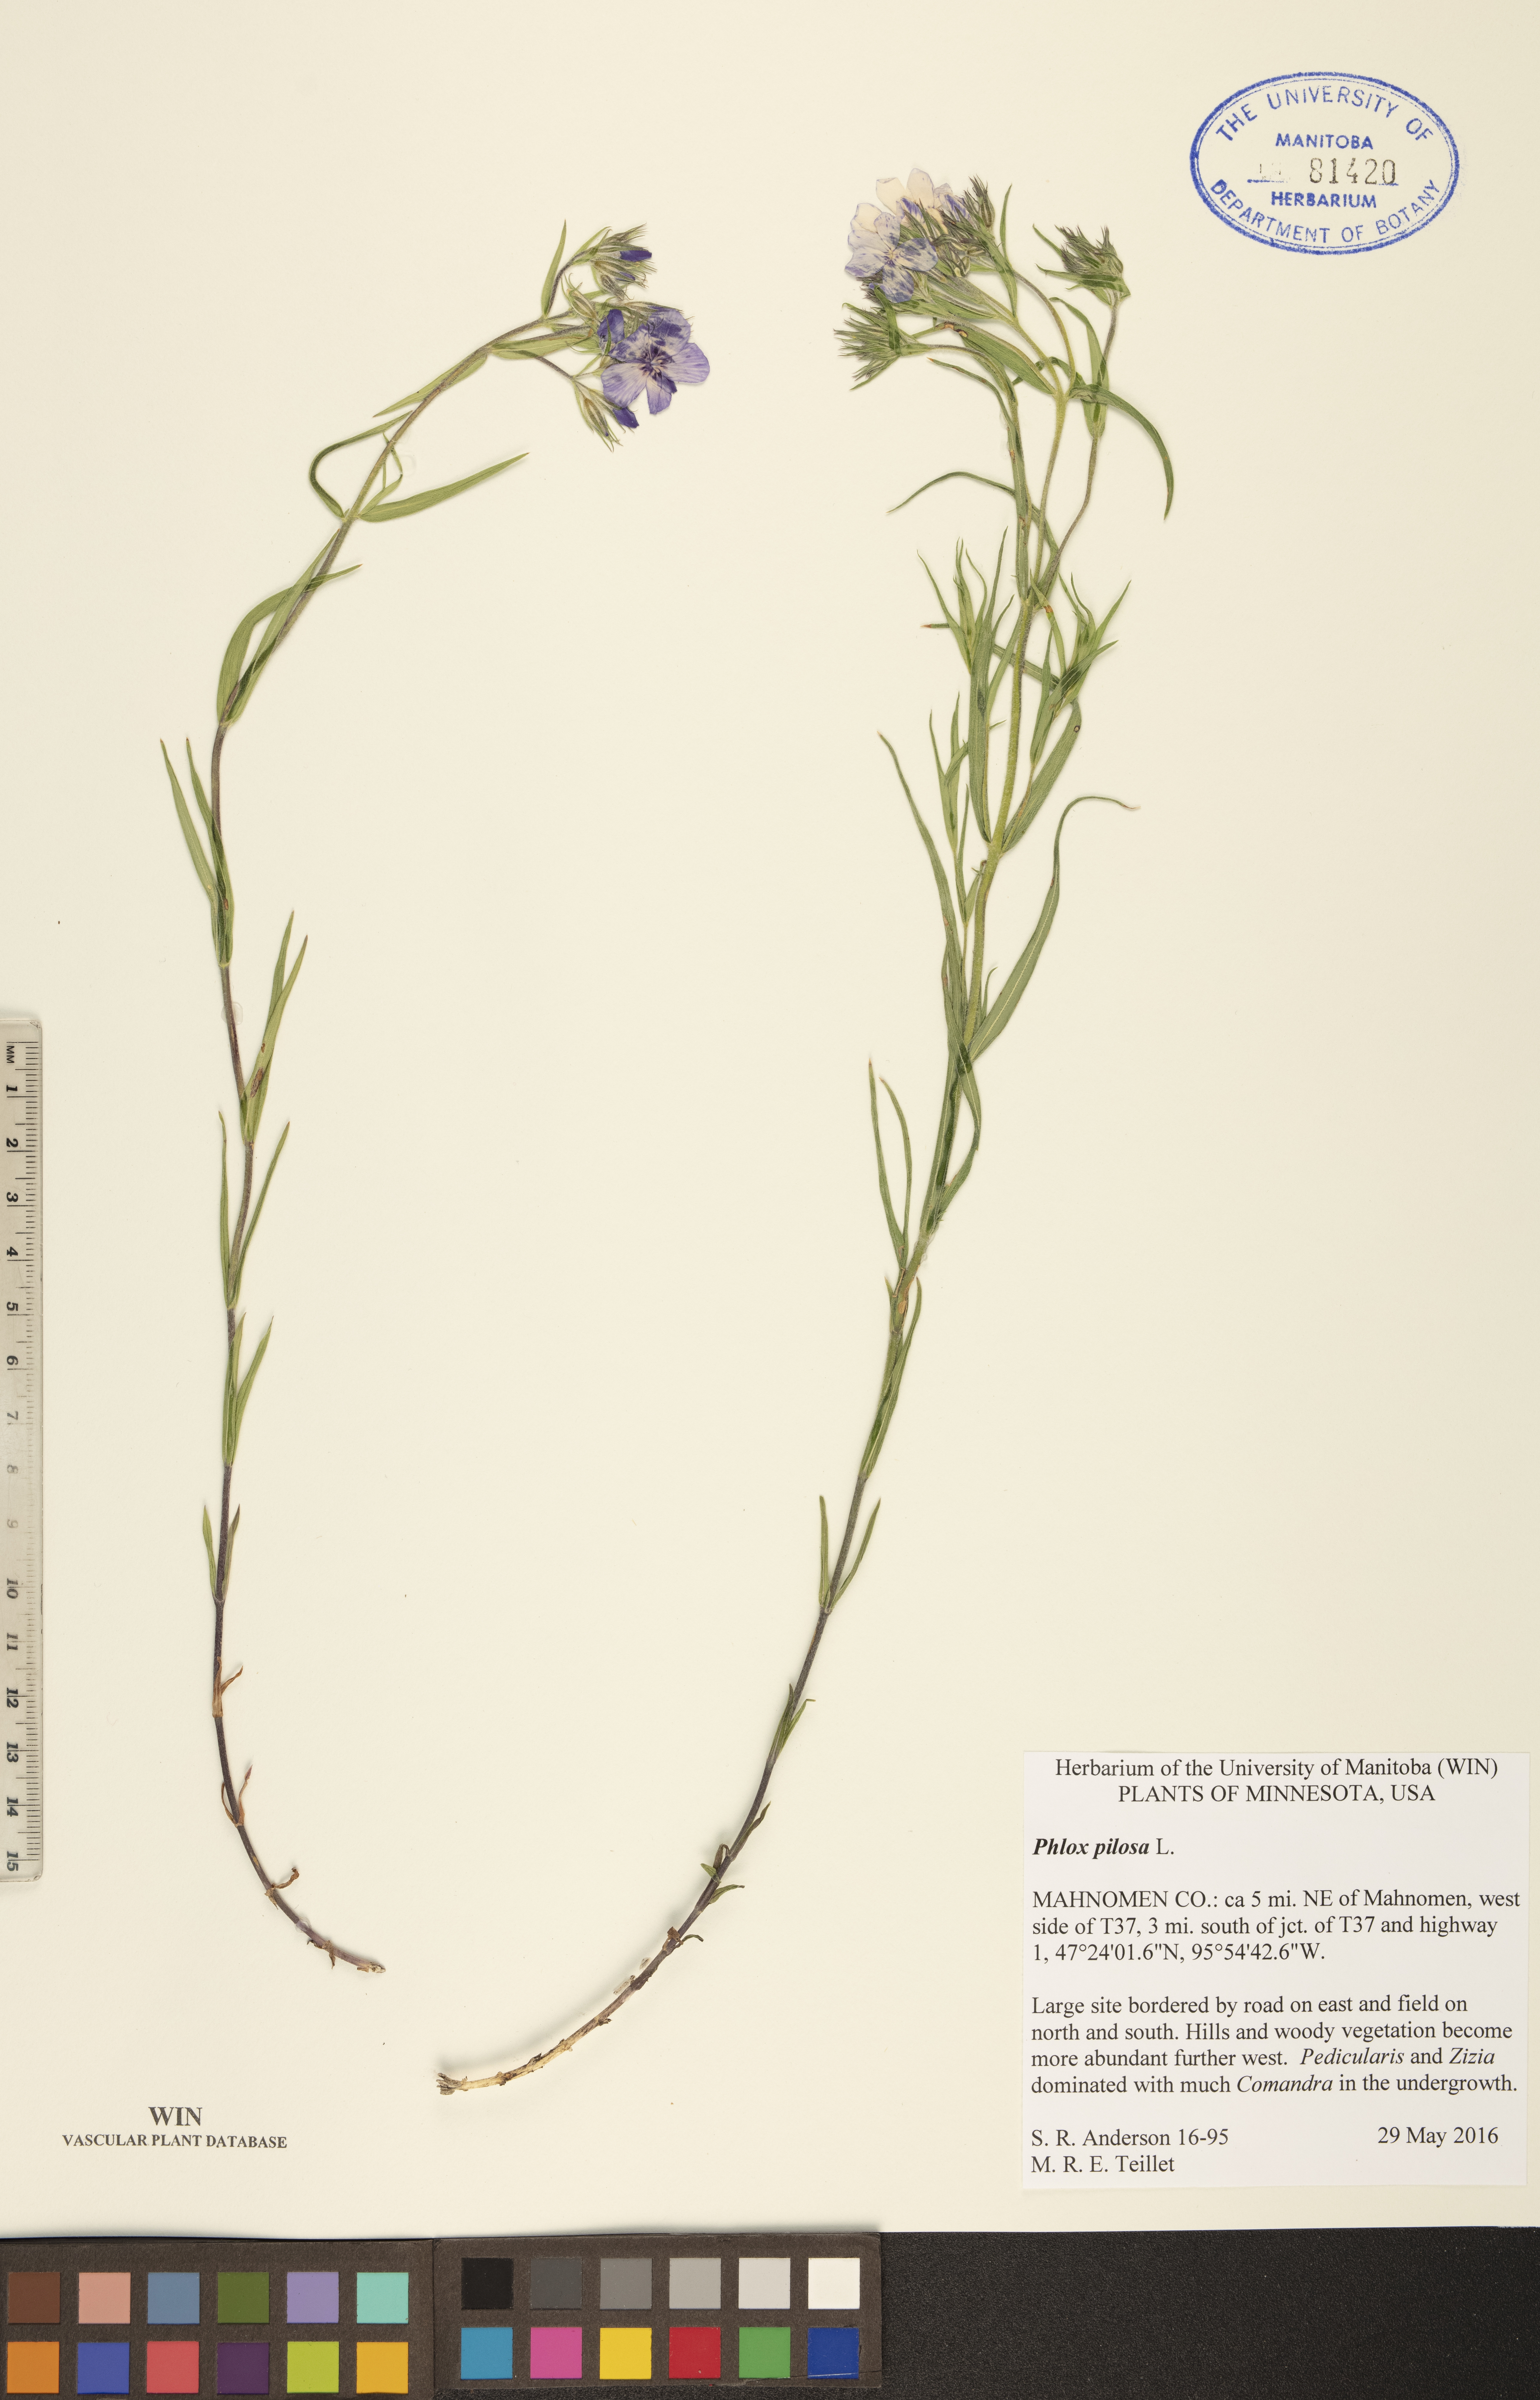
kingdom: Plantae
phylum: Tracheophyta
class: Magnoliopsida
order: Ericales
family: Polemoniaceae
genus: Phlox
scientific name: Phlox pilosa
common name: Prairie phlox
